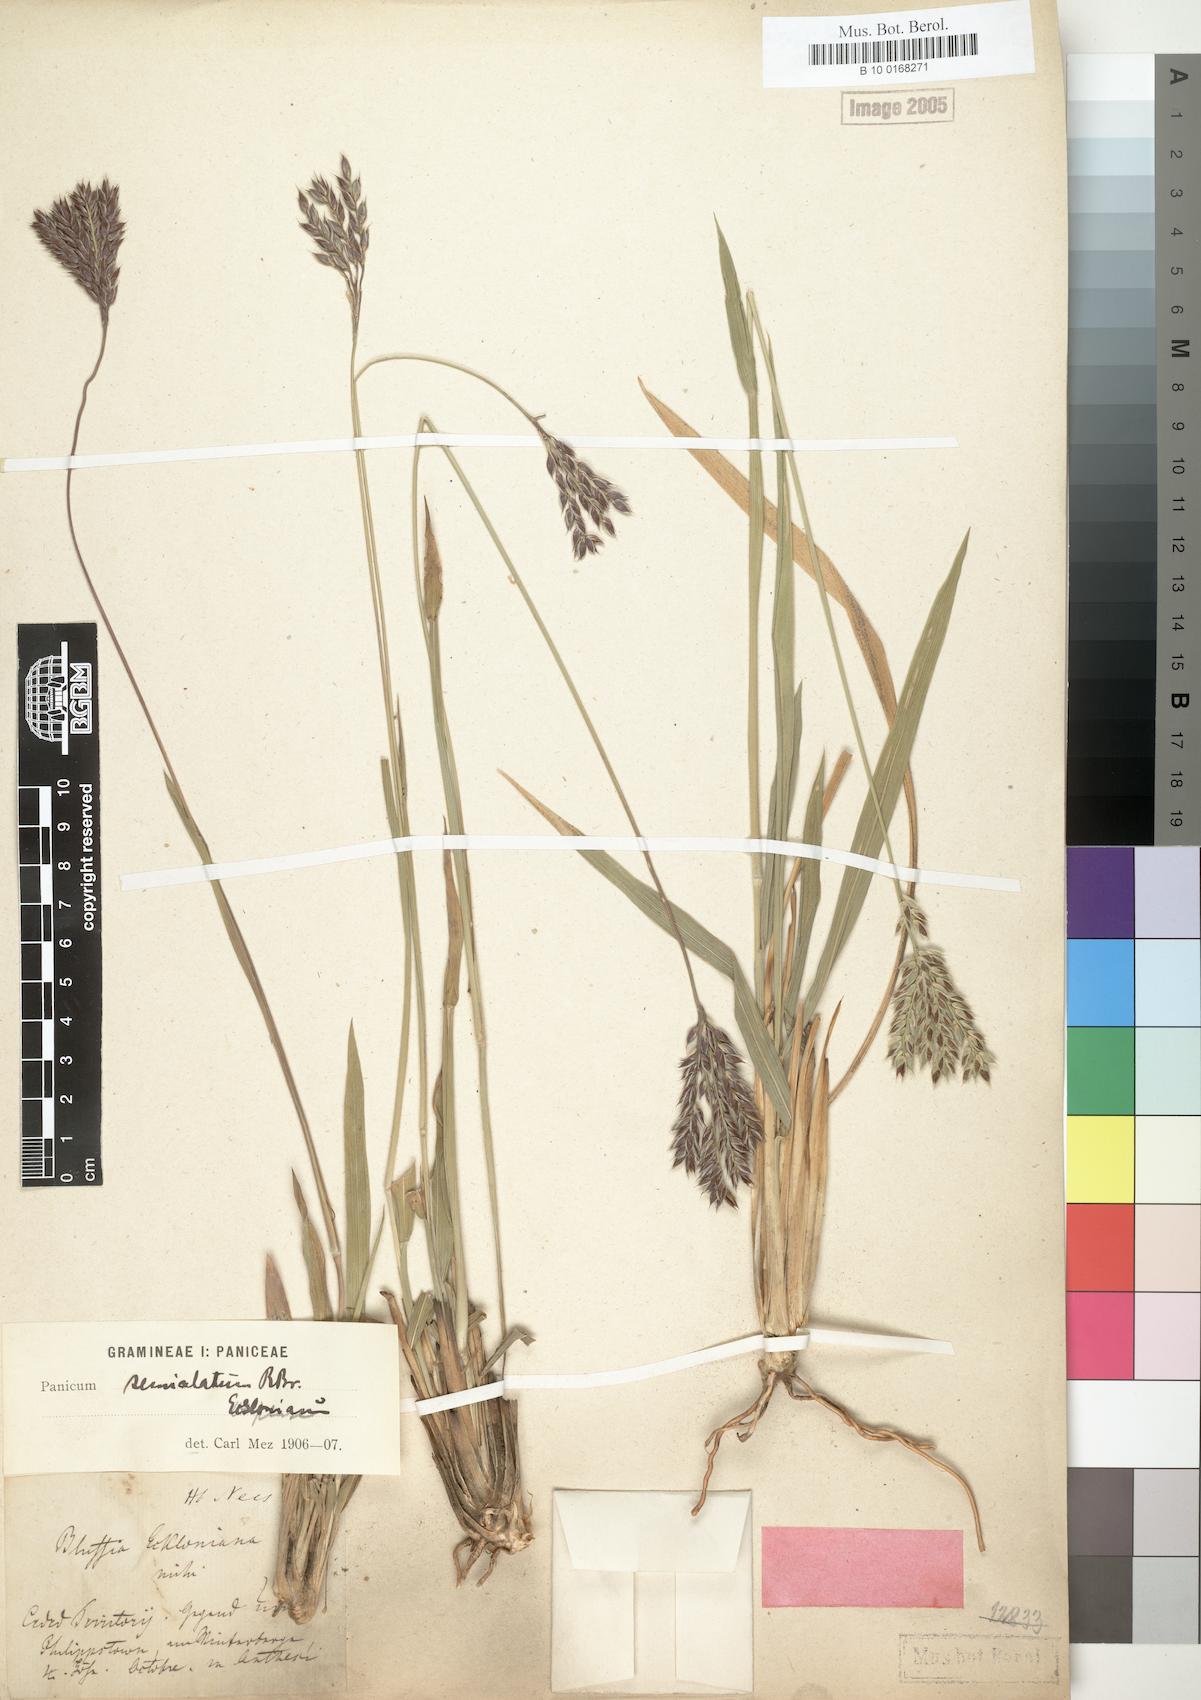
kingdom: Plantae
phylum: Tracheophyta
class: Liliopsida
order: Poales
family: Poaceae
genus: Alloteropsis
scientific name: Alloteropsis semialata
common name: Cockatoo grass
